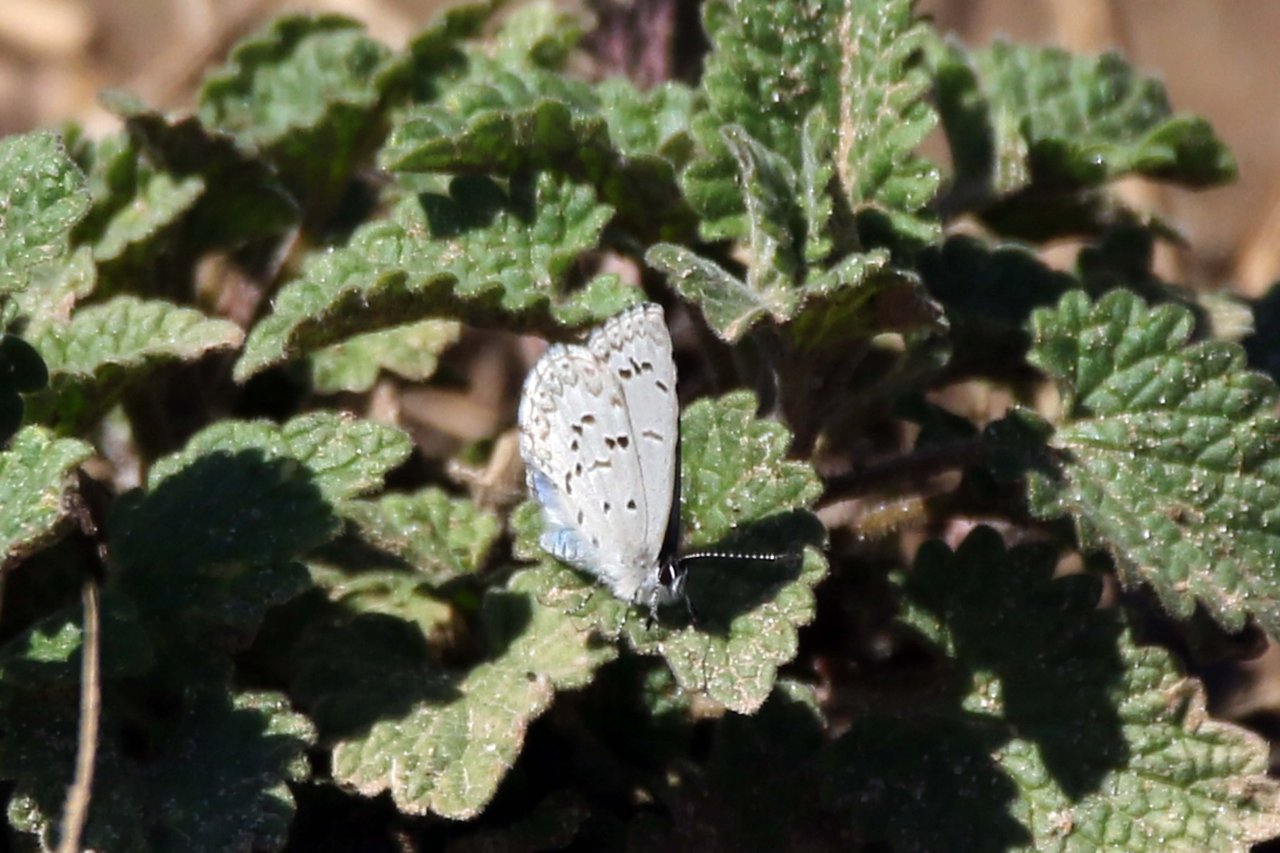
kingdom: Animalia
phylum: Arthropoda
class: Insecta
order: Lepidoptera
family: Lycaenidae
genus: Celastrina
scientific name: Celastrina lucia
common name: Northern Spring Azure
